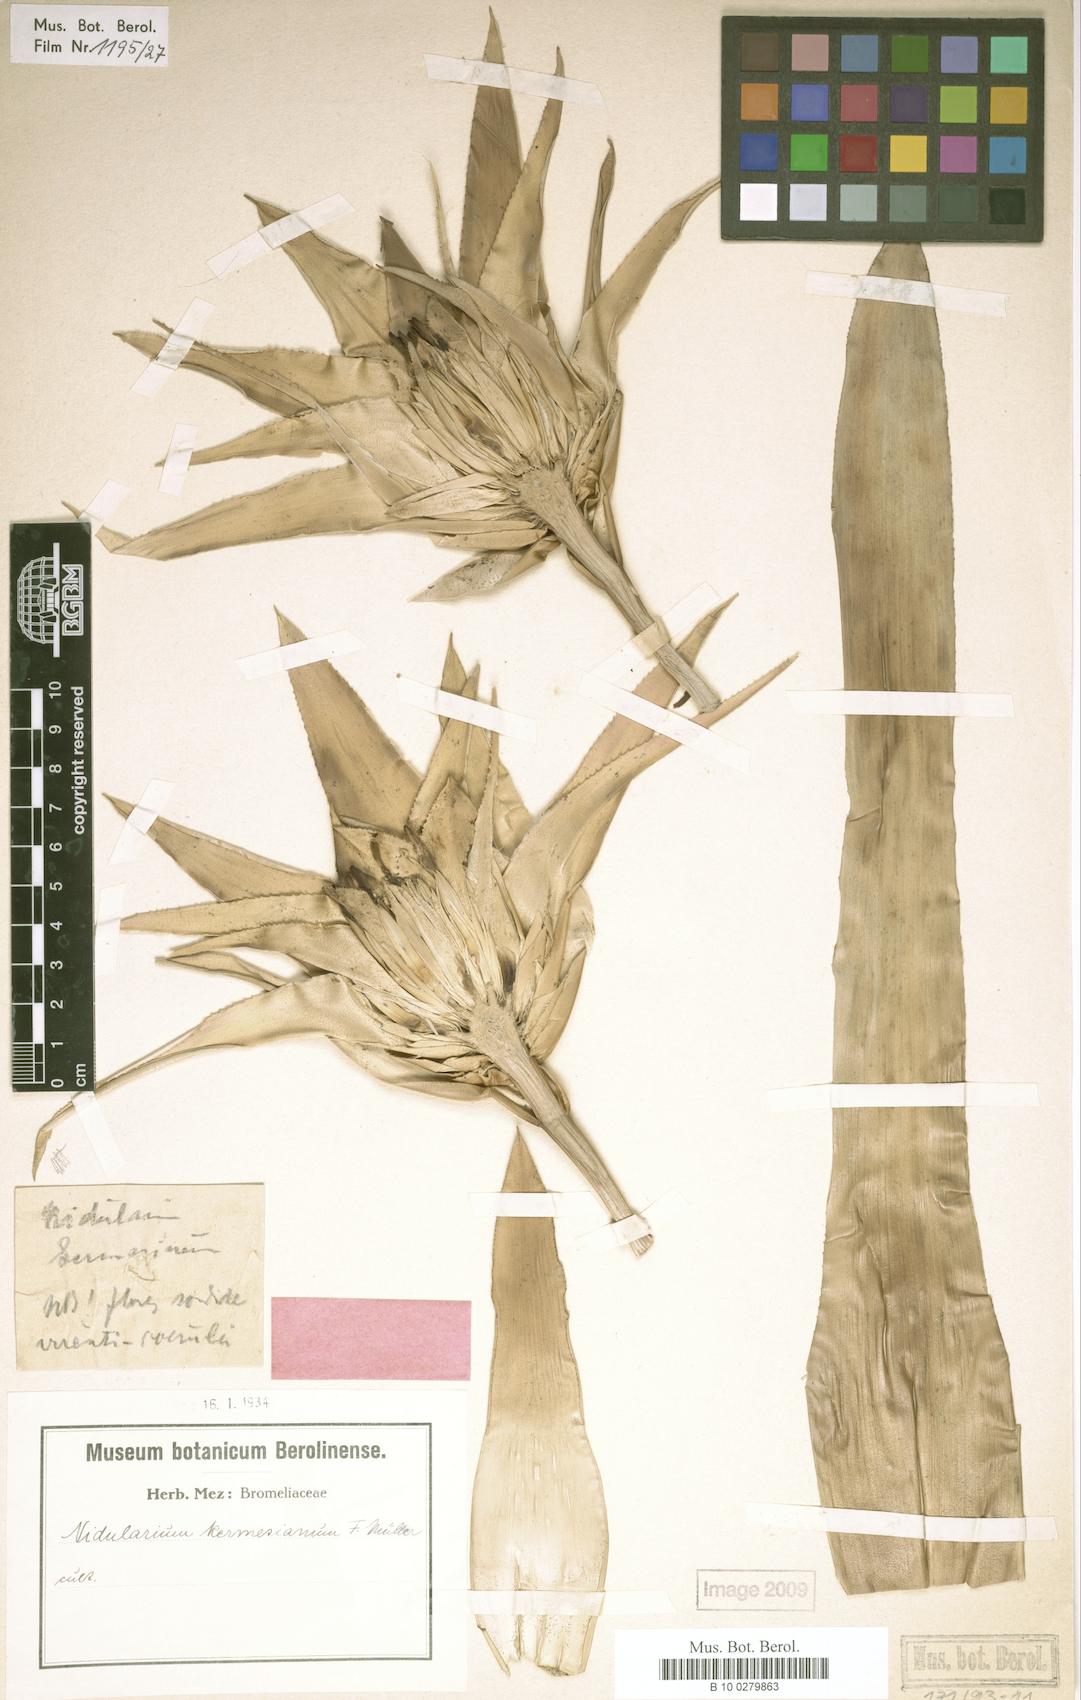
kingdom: Plantae
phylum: Tracheophyta
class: Liliopsida
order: Poales
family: Bromeliaceae
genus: Nidularium
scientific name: Nidularium procerum
